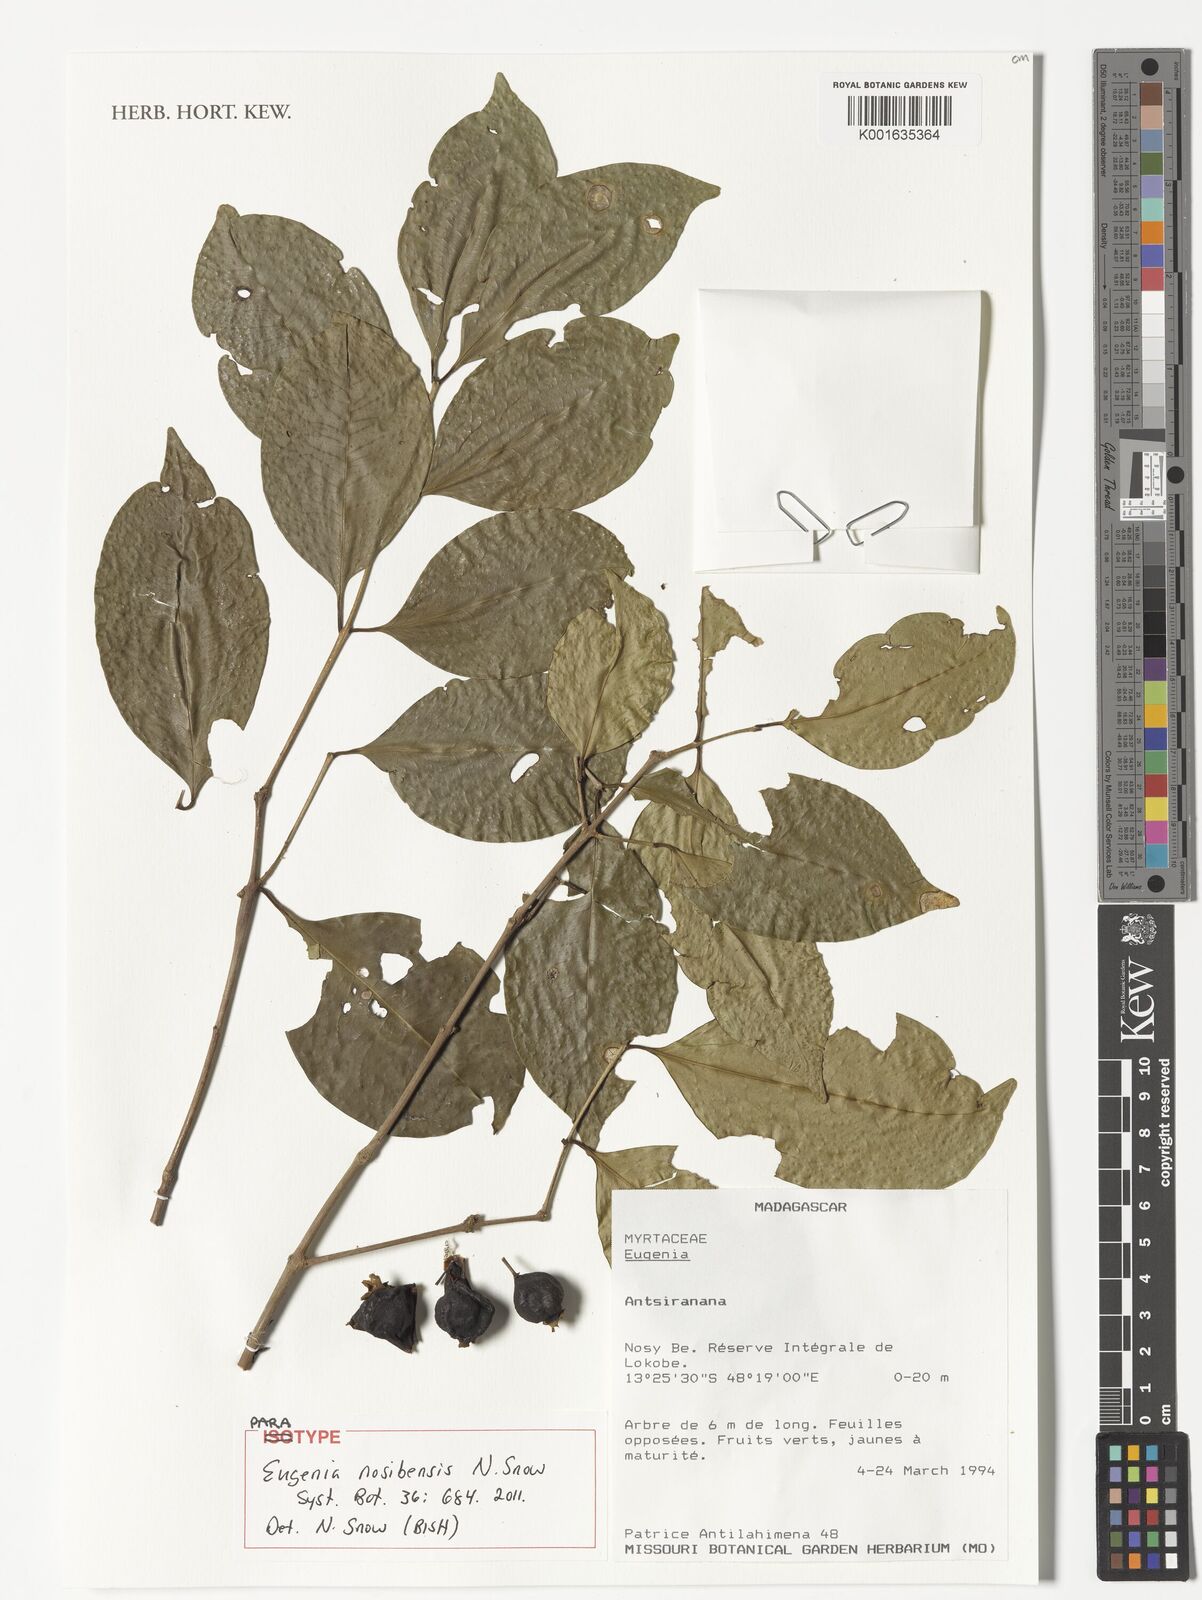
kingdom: Plantae
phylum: Tracheophyta
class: Magnoliopsida
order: Myrtales
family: Myrtaceae
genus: Eugenia
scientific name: Eugenia
